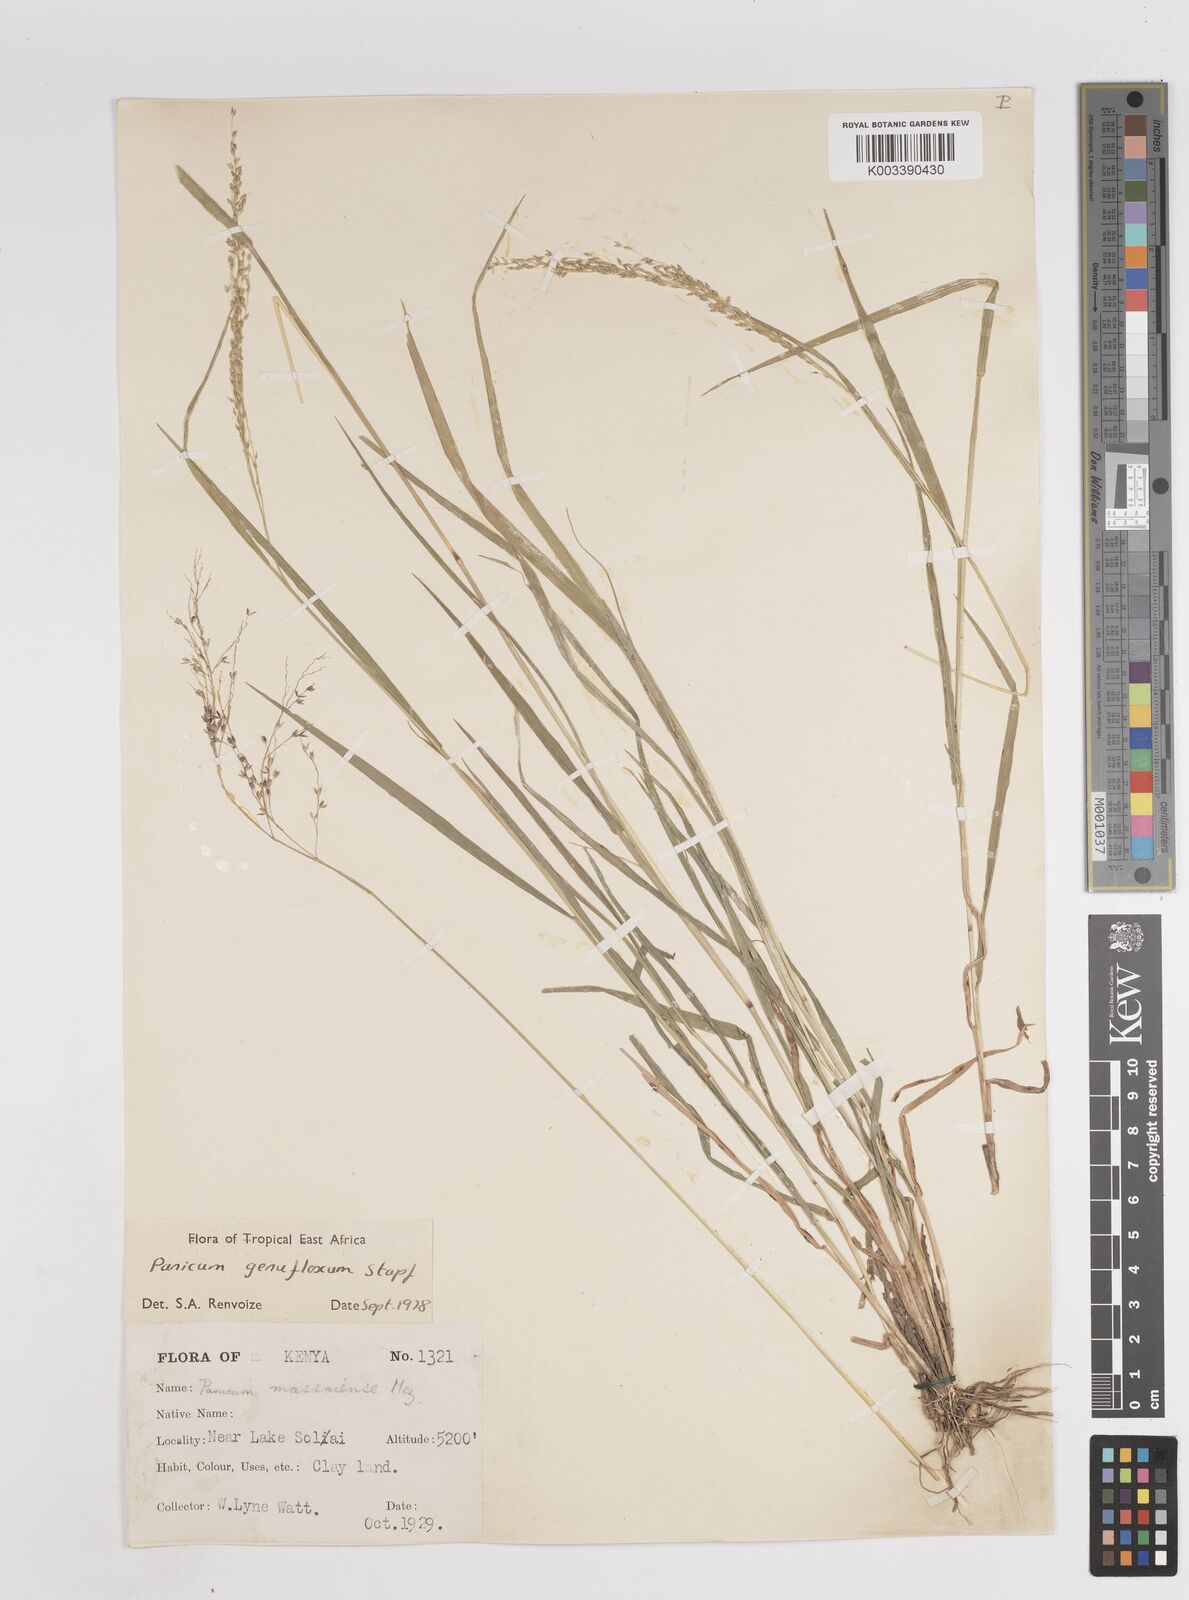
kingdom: Plantae
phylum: Tracheophyta
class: Liliopsida
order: Poales
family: Poaceae
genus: Panicum
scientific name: Panicum genuflexum
